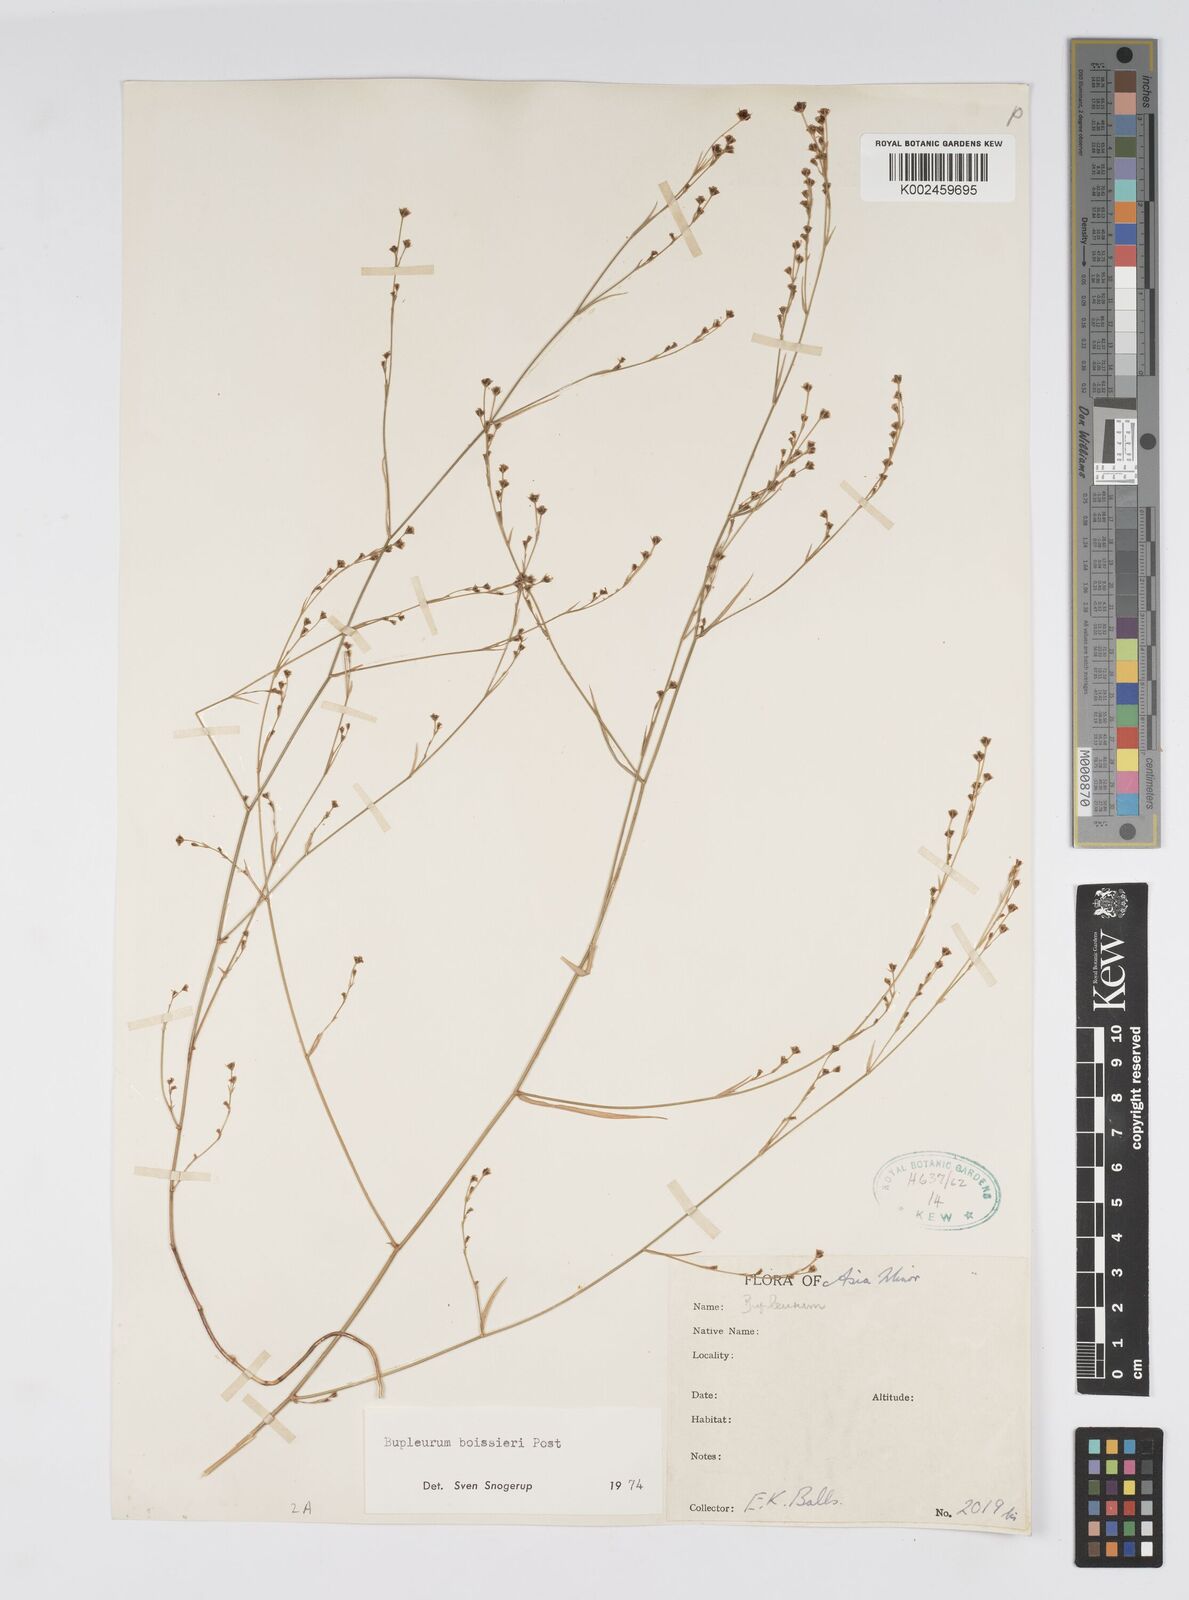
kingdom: Plantae
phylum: Tracheophyta
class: Magnoliopsida
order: Apiales
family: Apiaceae
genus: Bupleurum
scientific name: Bupleurum boissieri
